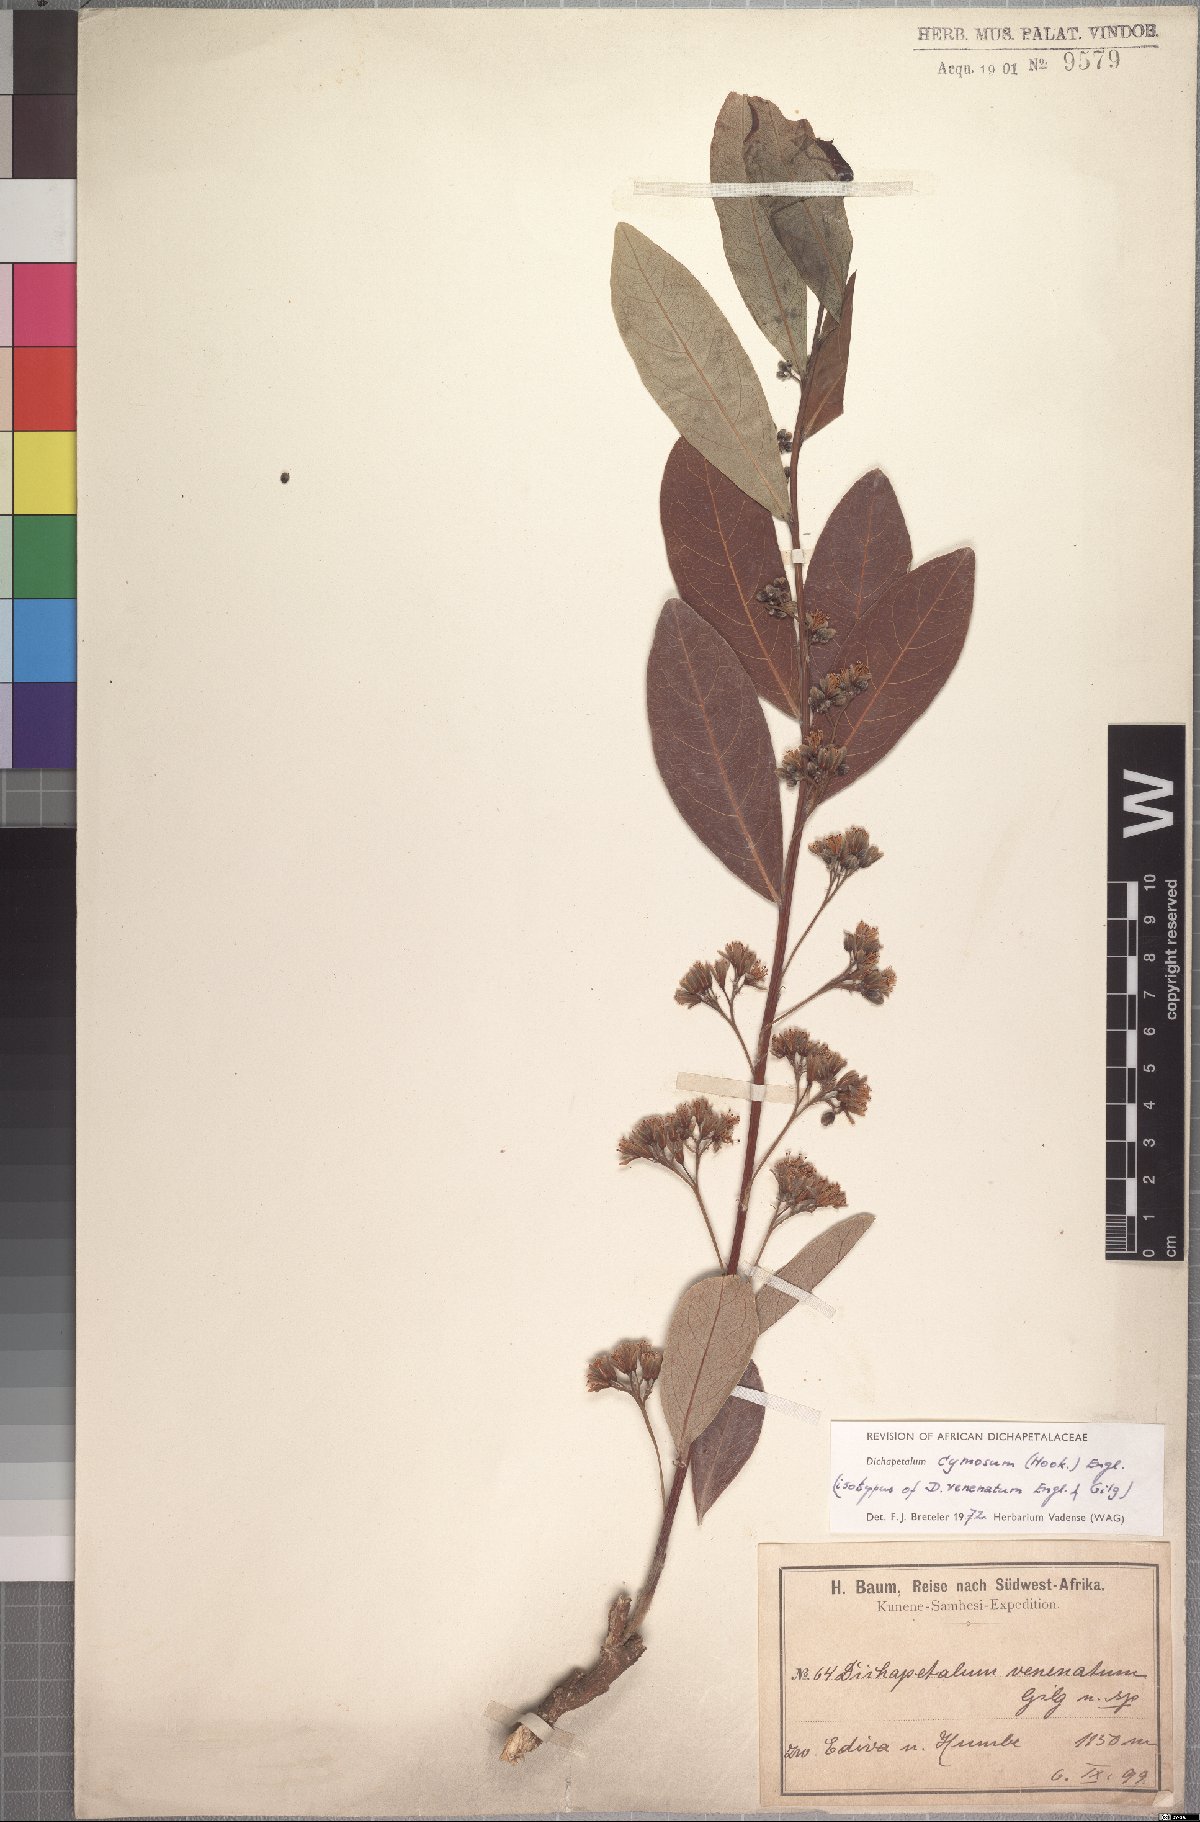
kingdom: Plantae
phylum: Tracheophyta
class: Magnoliopsida
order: Malpighiales
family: Dichapetalaceae
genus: Dichapetalum
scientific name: Dichapetalum cymosum
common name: Poison leaf
